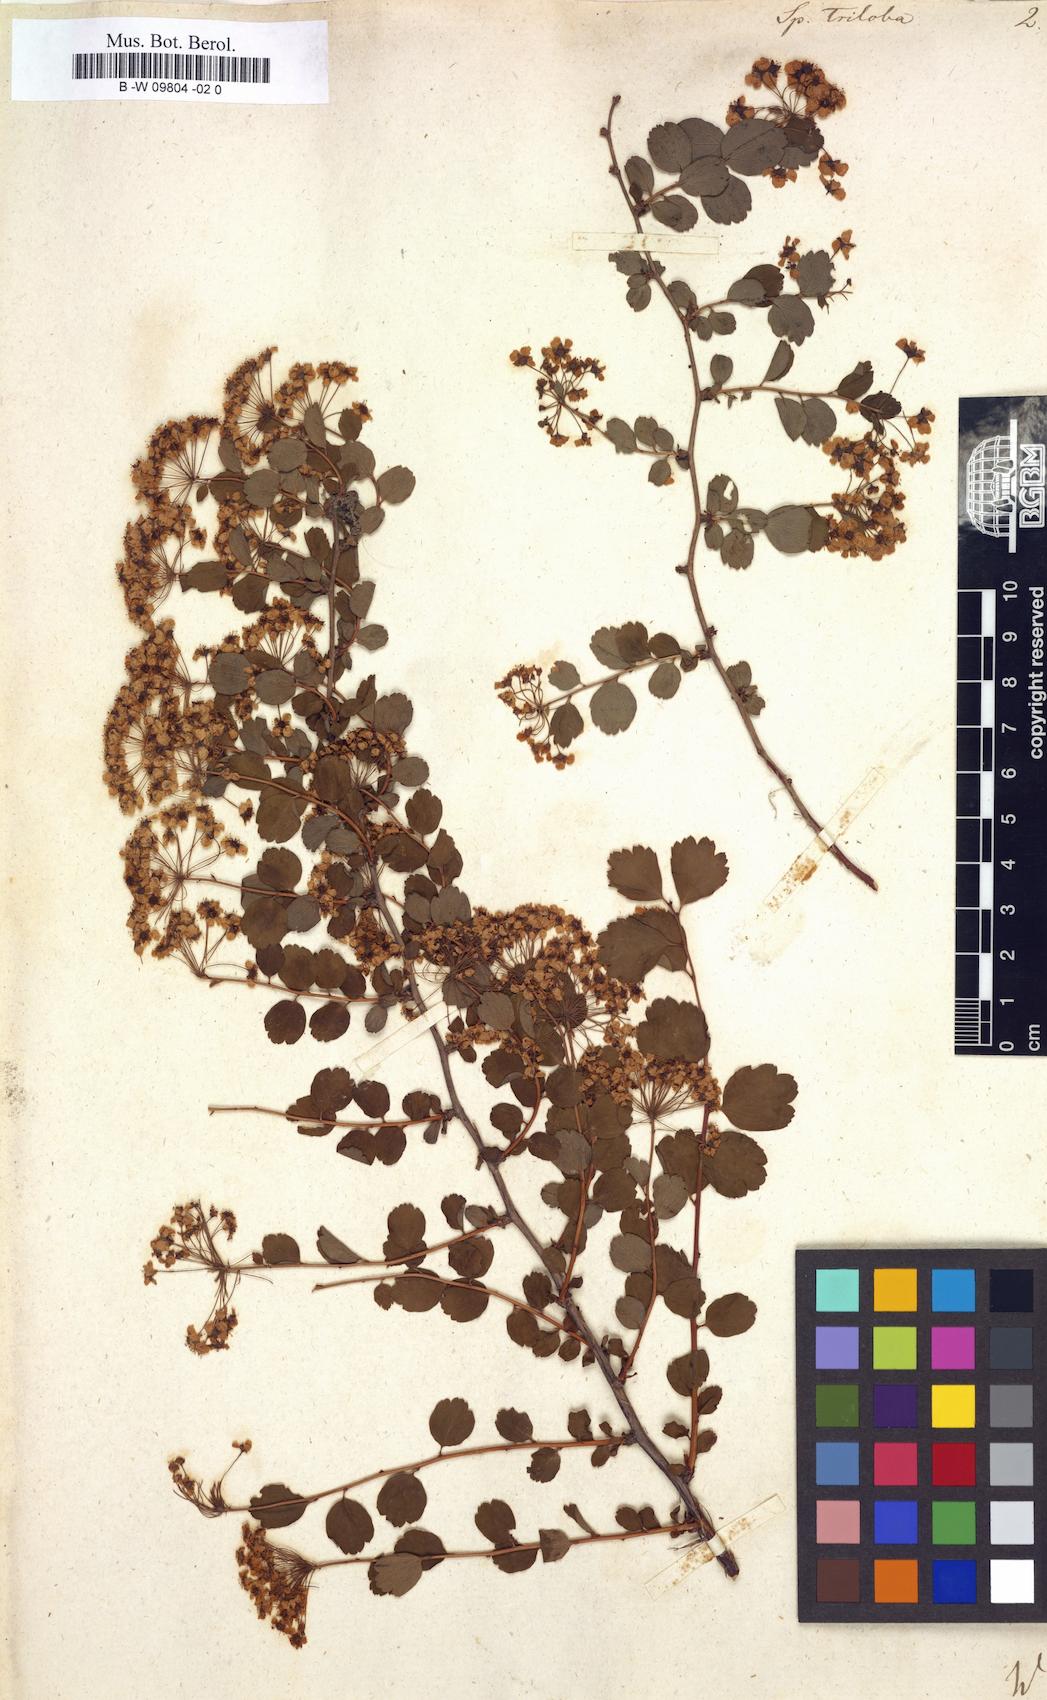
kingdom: Plantae
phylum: Tracheophyta
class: Magnoliopsida
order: Rosales
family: Rosaceae
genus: Spiraea
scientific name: Spiraea trilobata
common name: Asian meadowsweet
